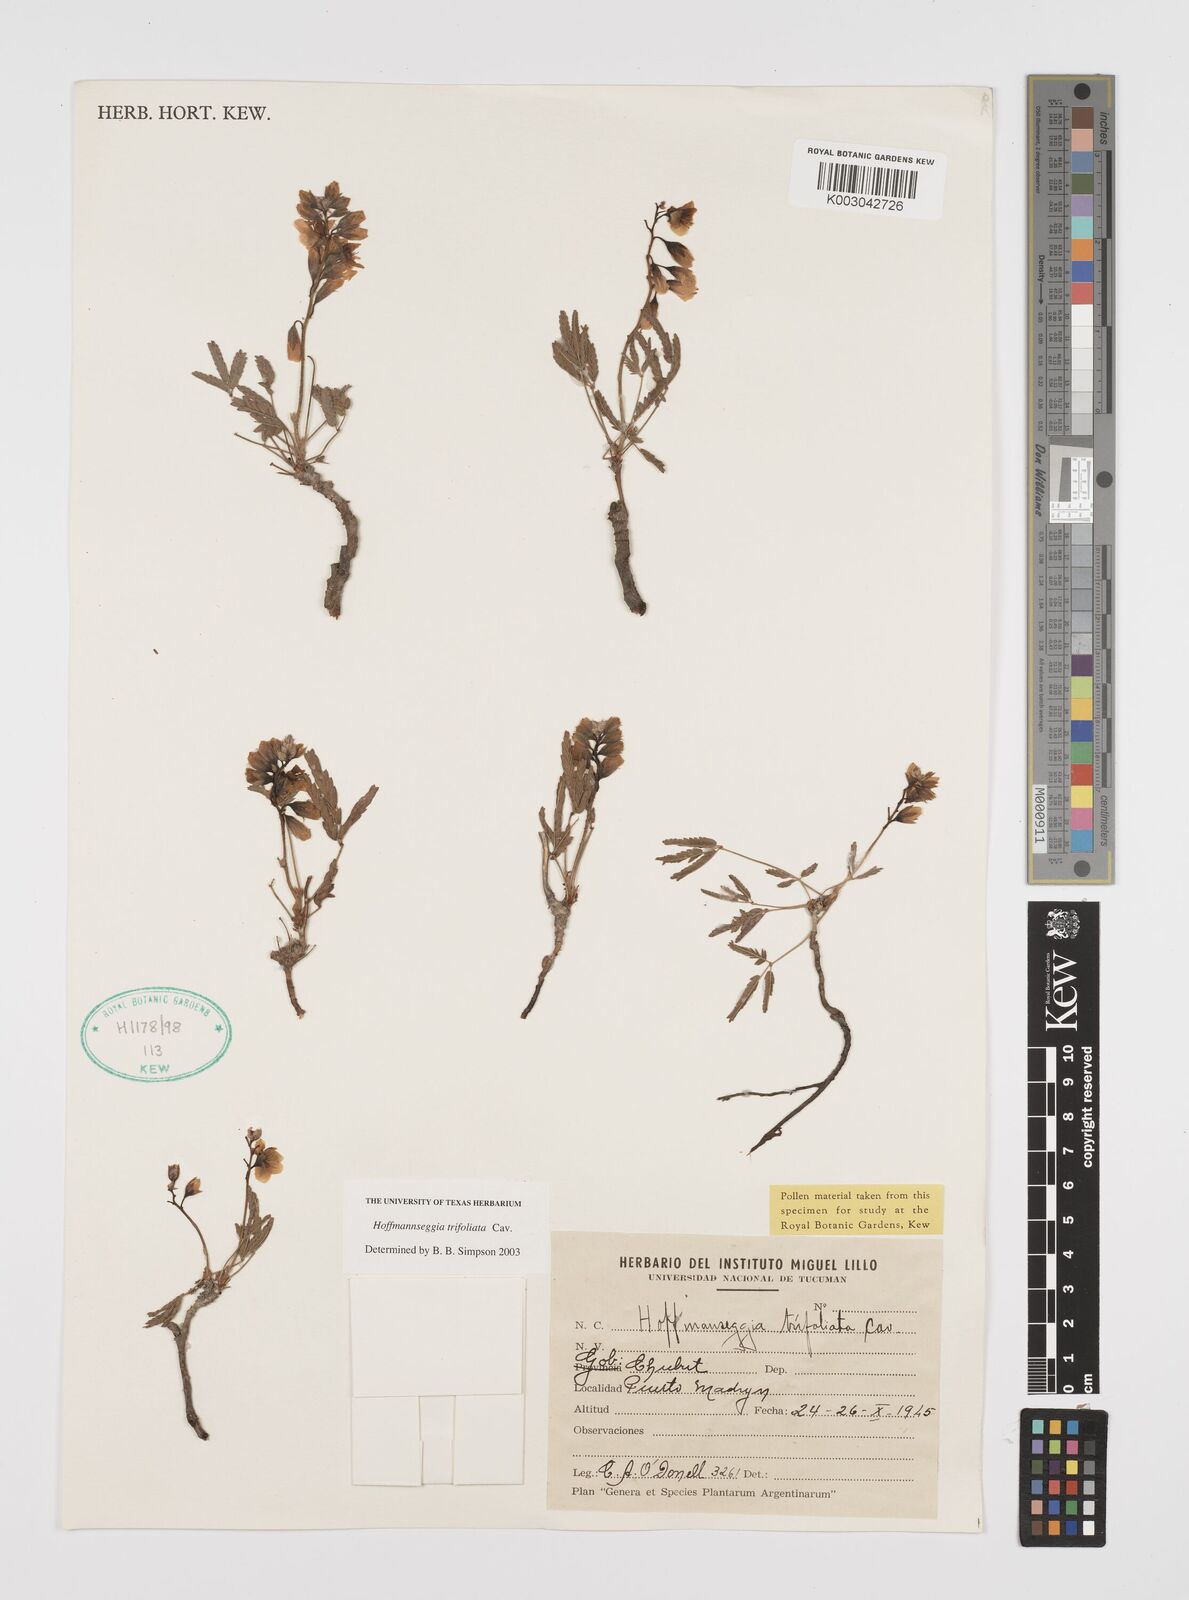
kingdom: Plantae
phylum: Tracheophyta
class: Magnoliopsida
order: Fabales
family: Fabaceae
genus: Hoffmannseggia
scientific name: Hoffmannseggia trifoliata
